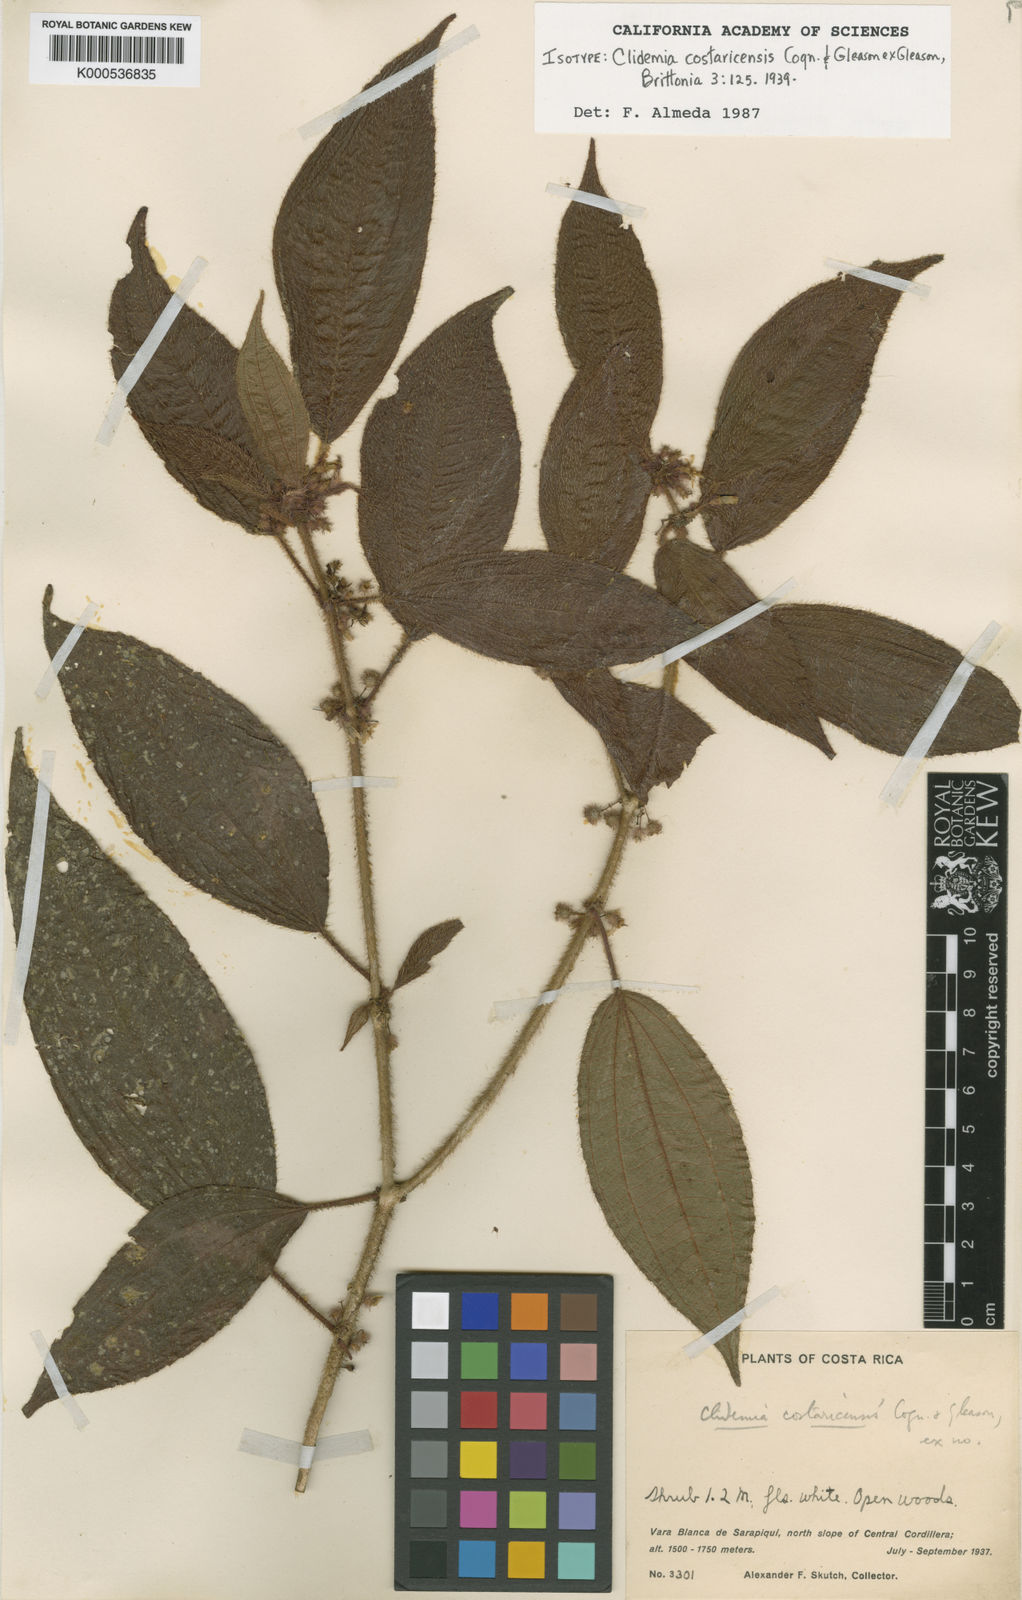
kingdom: Plantae
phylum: Tracheophyta
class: Magnoliopsida
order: Myrtales
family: Melastomataceae
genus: Miconia
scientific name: Miconia skutchiana
